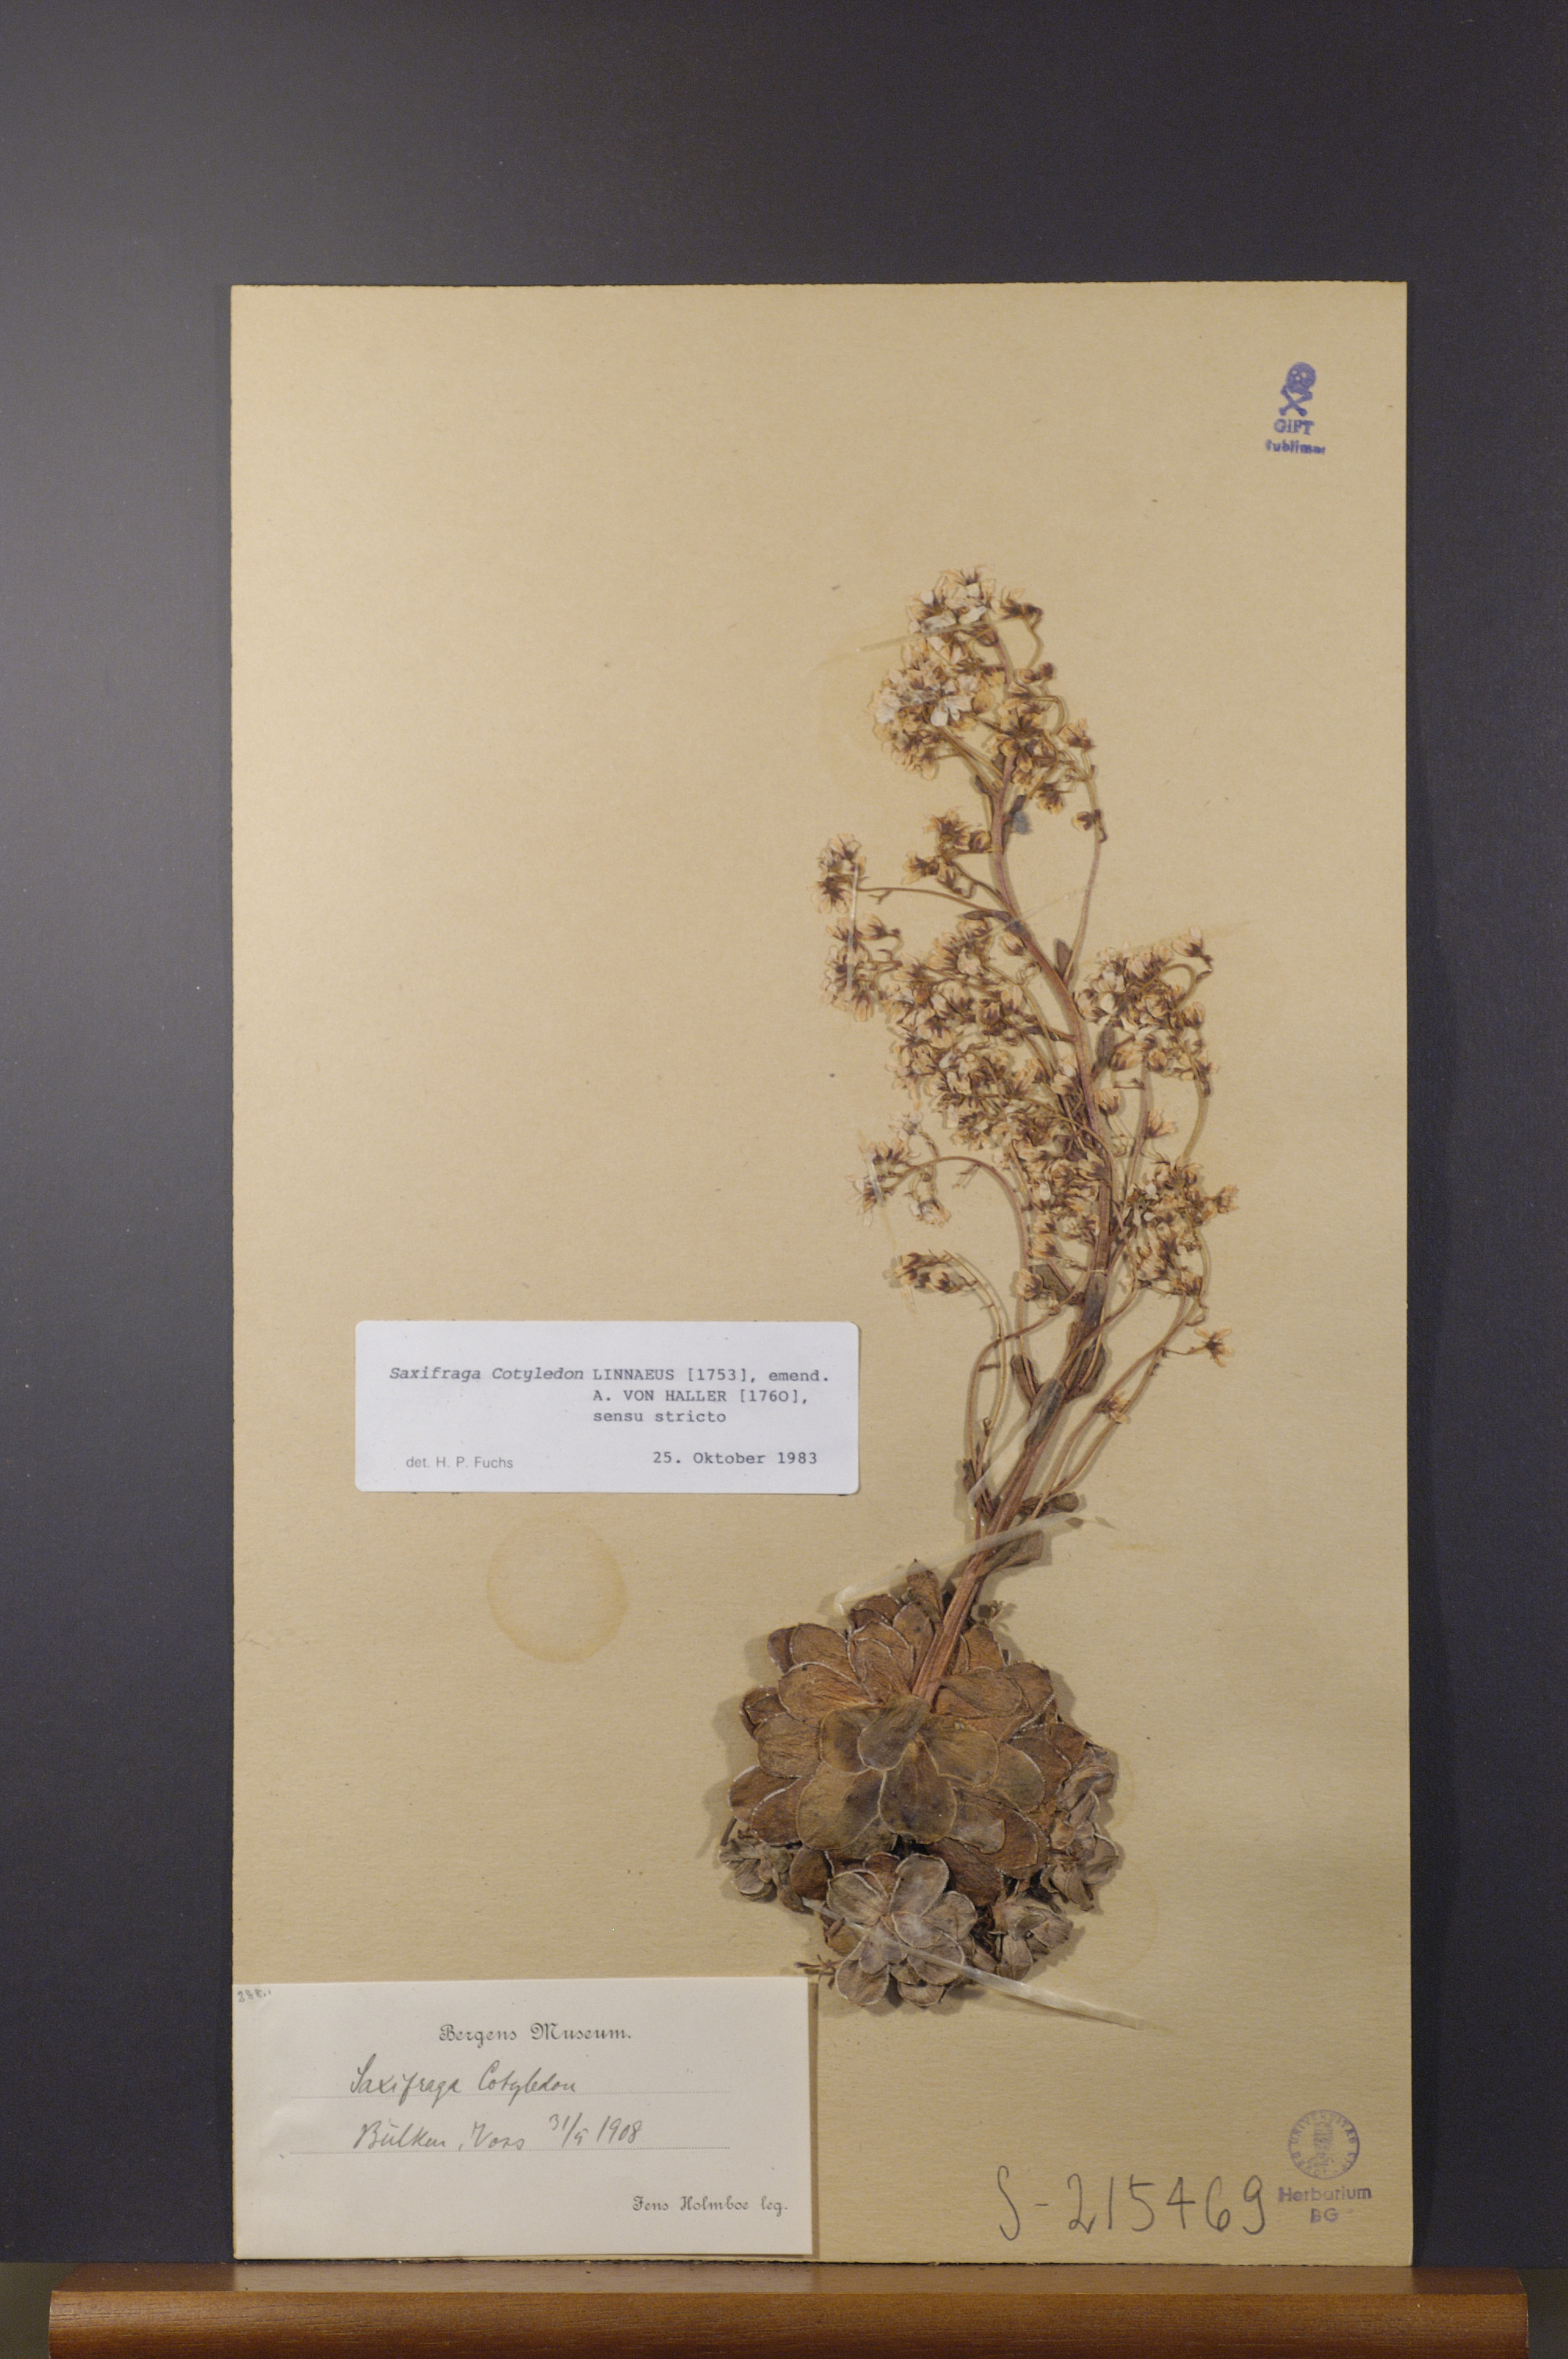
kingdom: Plantae
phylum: Tracheophyta
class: Magnoliopsida
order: Saxifragales
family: Saxifragaceae
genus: Saxifraga
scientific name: Saxifraga cotyledon
